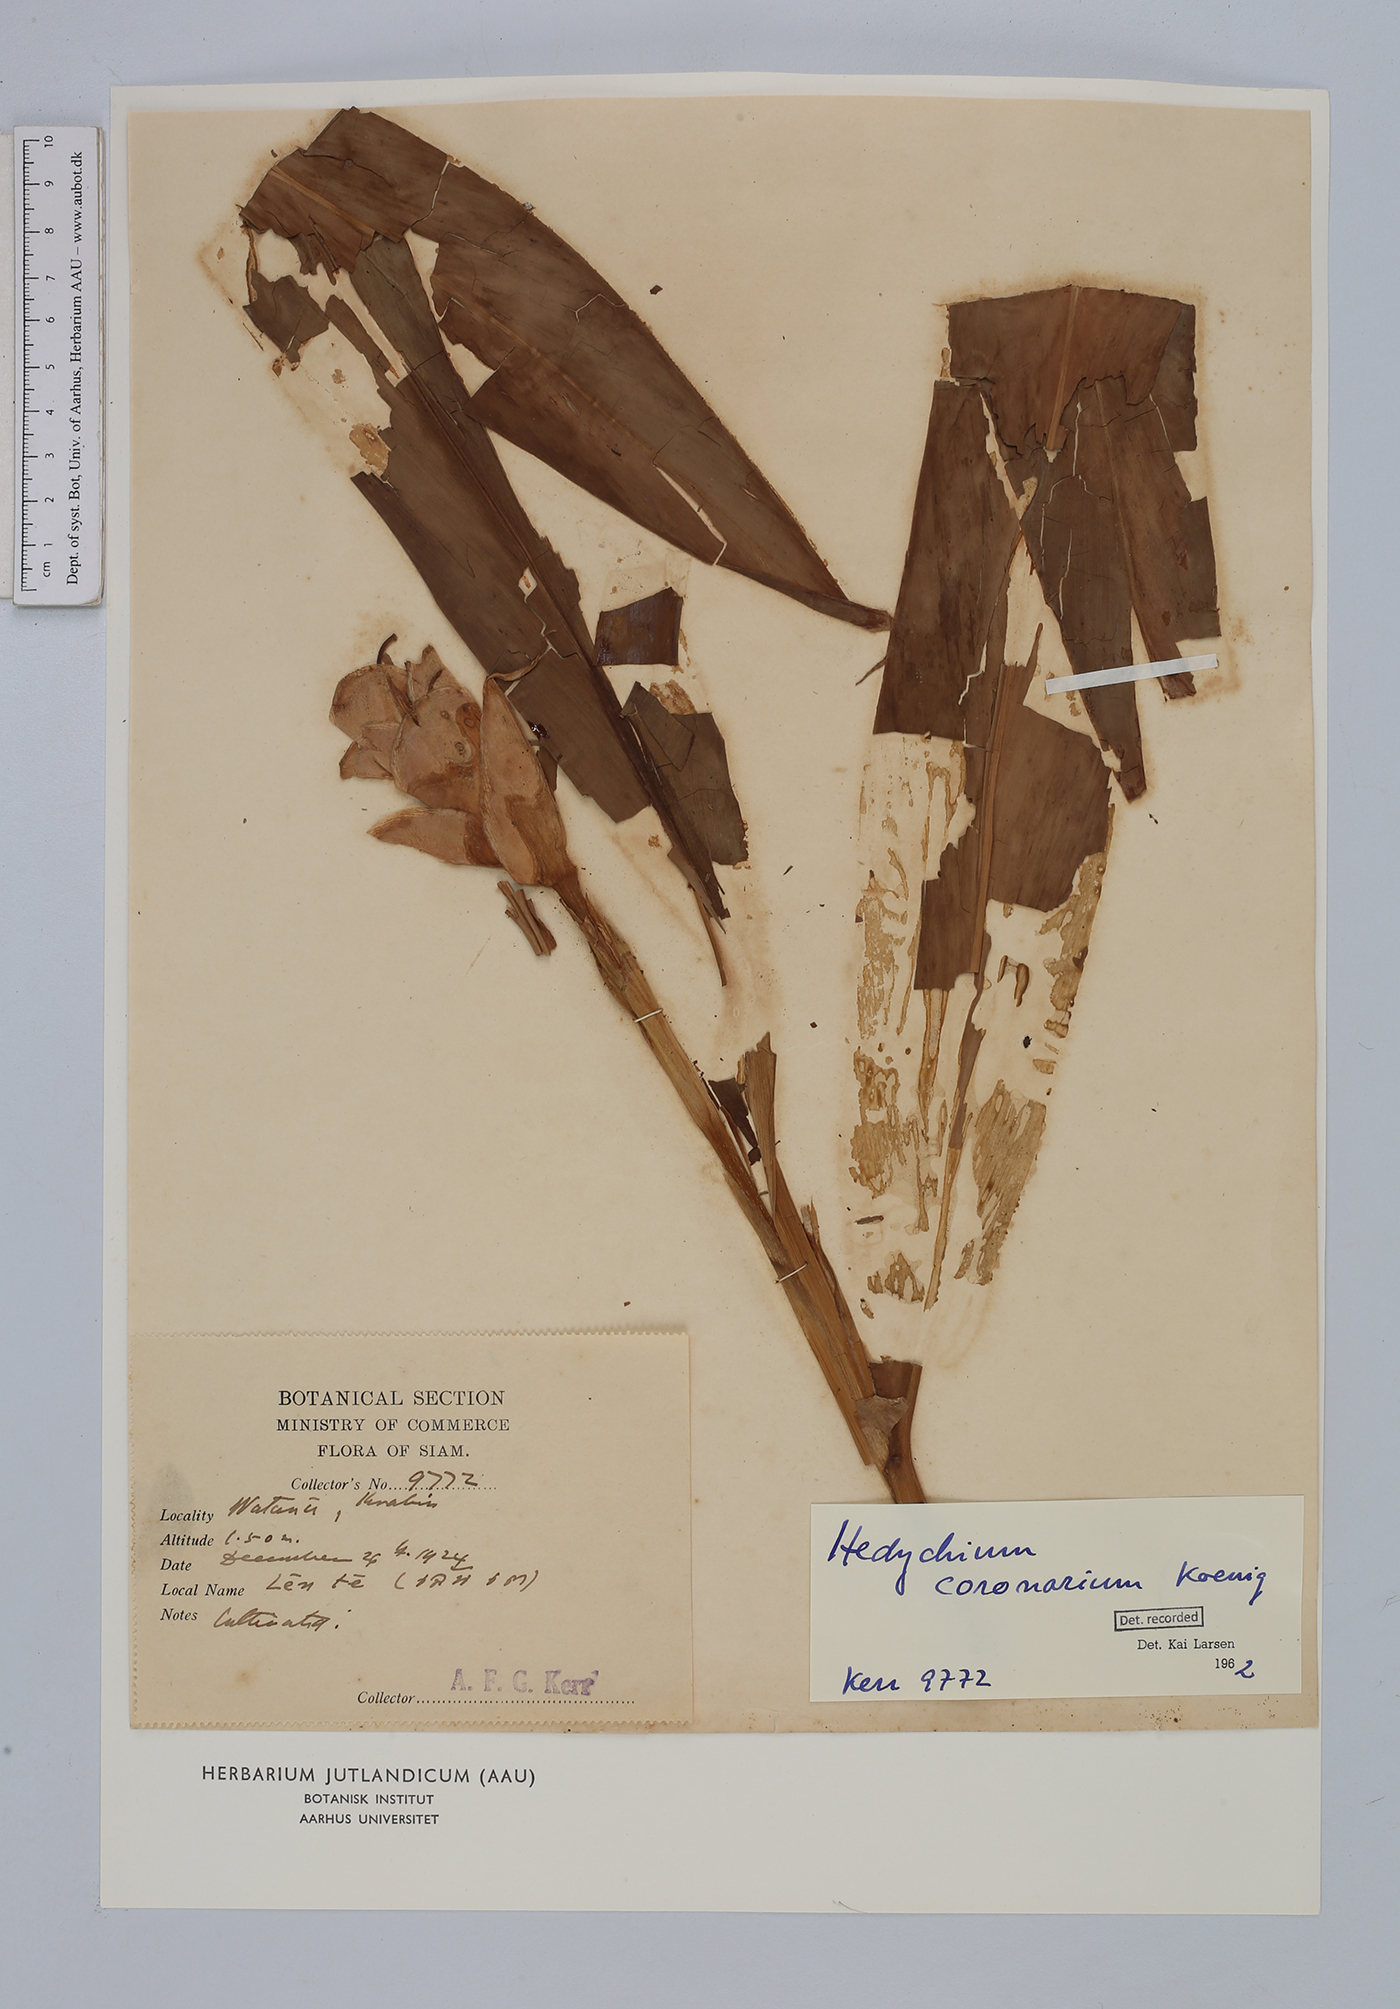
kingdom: Plantae
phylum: Tracheophyta
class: Liliopsida
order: Zingiberales
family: Zingiberaceae
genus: Hedychium
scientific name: Hedychium coronarium
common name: White garland-lily
